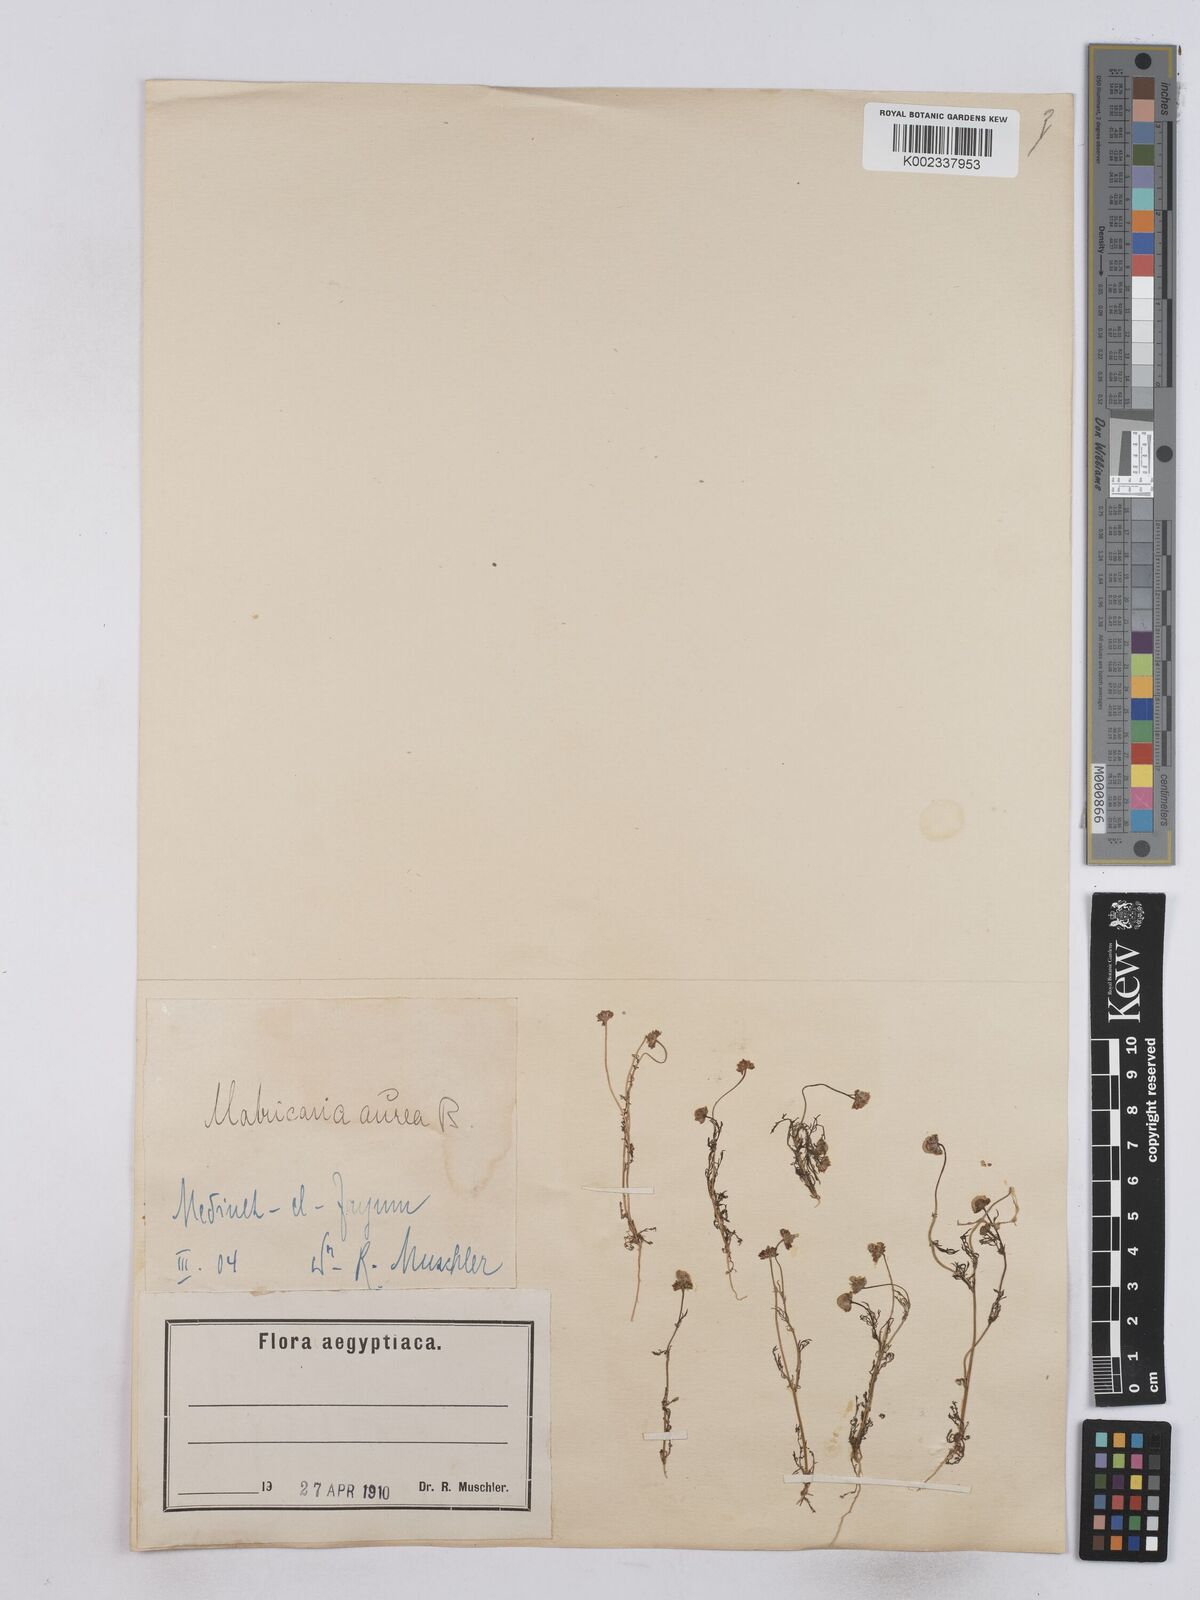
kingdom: Plantae
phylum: Tracheophyta
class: Magnoliopsida
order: Asterales
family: Asteraceae
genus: Matricaria
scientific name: Matricaria
